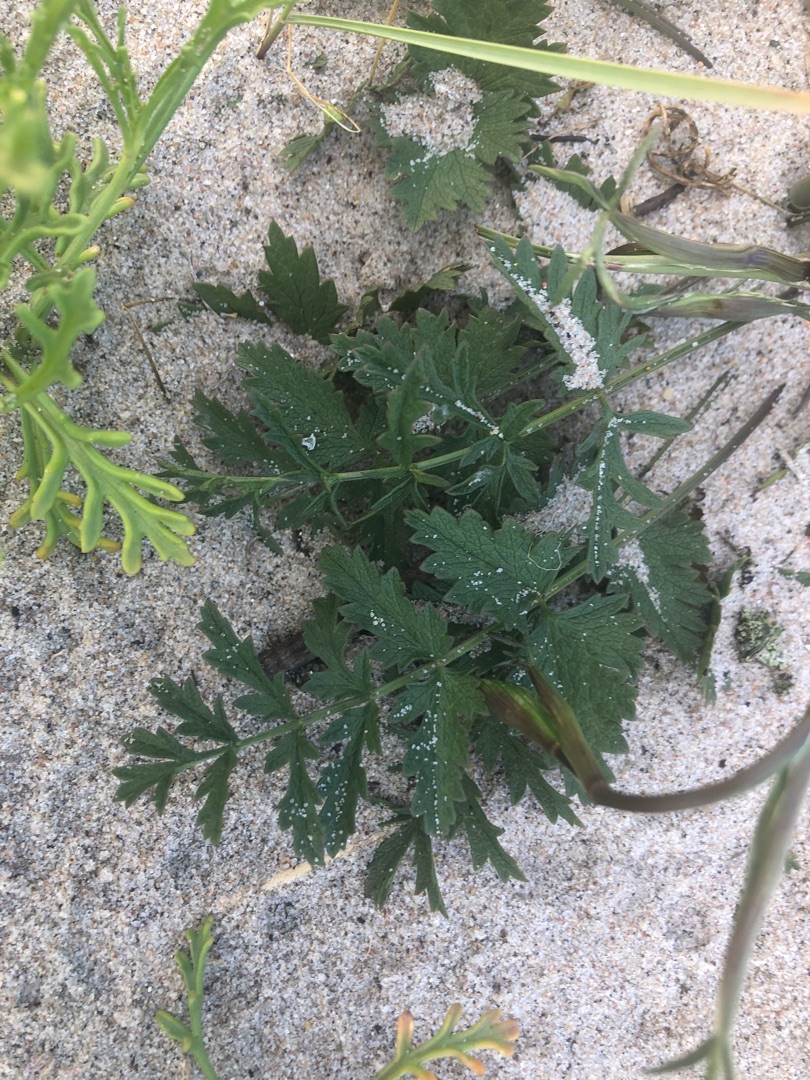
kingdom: Plantae
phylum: Tracheophyta
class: Magnoliopsida
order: Apiales
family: Apiaceae
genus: Pimpinella
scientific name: Pimpinella saxifraga
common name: Almindelig pimpinelle
